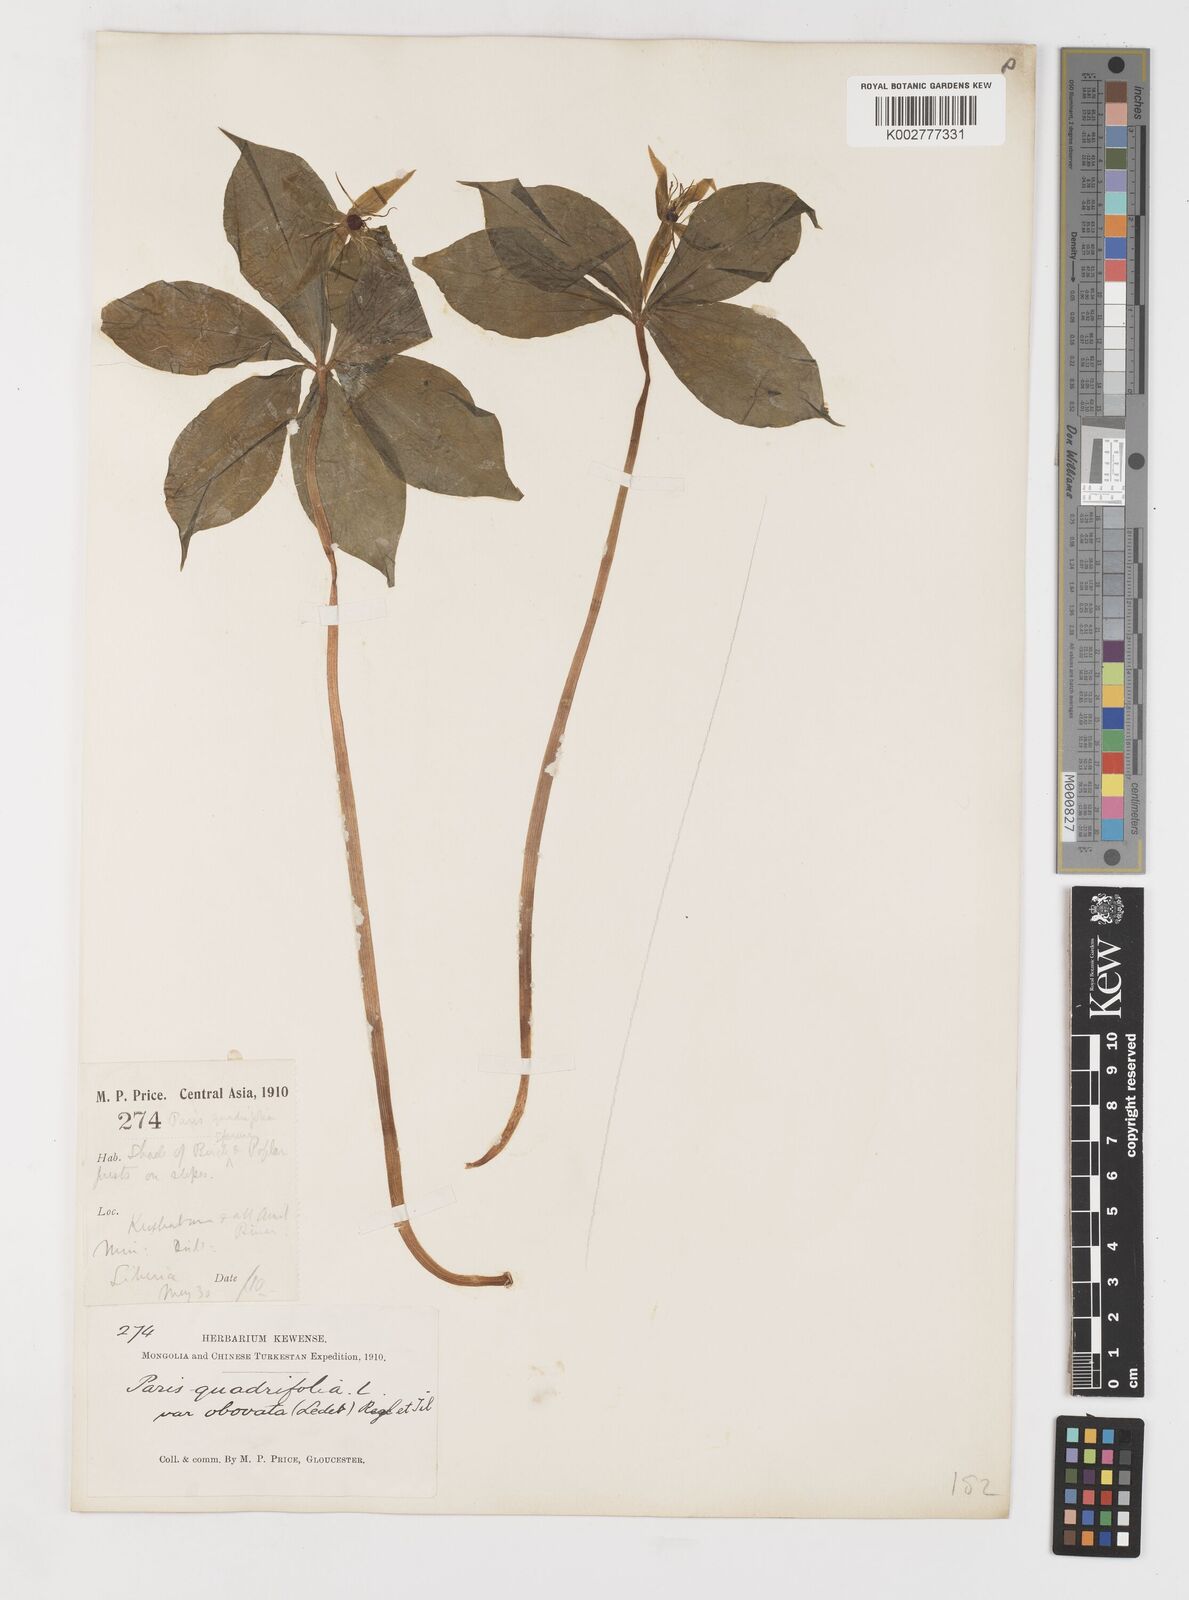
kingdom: Plantae
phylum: Tracheophyta
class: Liliopsida
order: Liliales
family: Melanthiaceae
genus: Paris
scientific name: Paris incompleta
